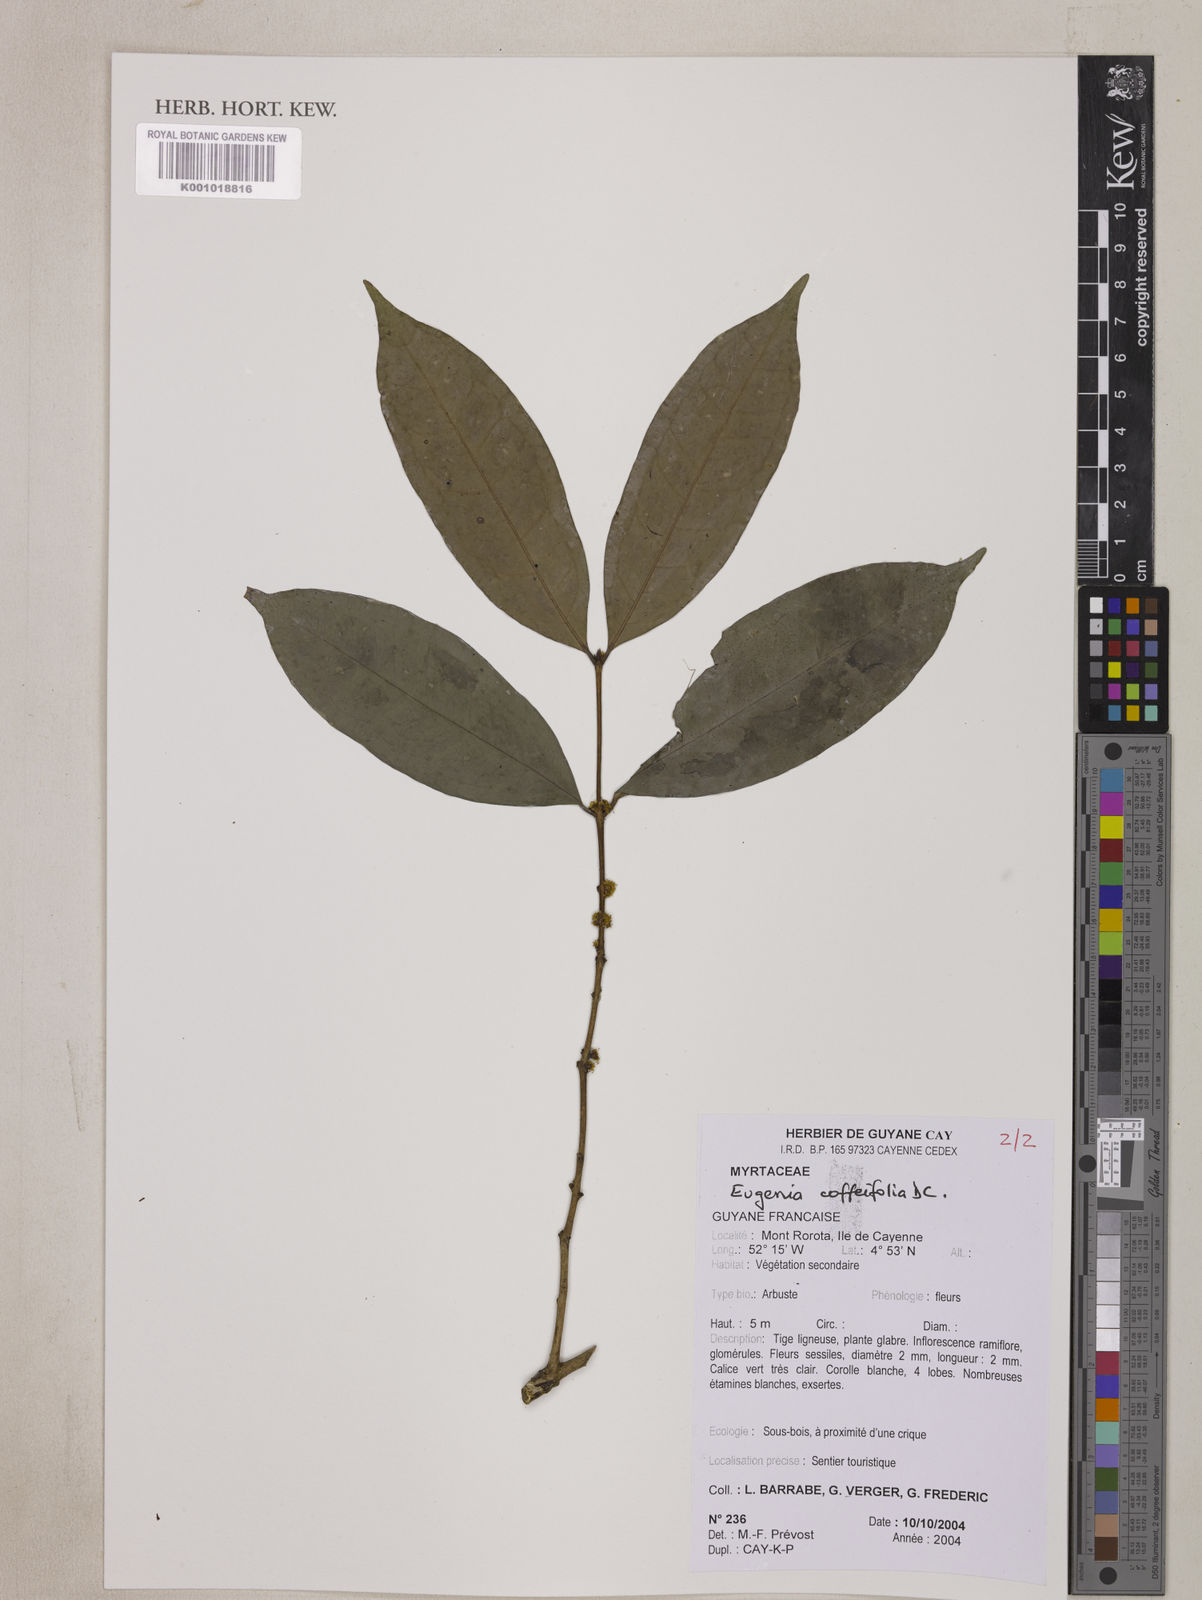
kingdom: Plantae
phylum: Tracheophyta
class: Magnoliopsida
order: Myrtales
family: Myrtaceae
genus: Eugenia
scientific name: Eugenia coffeifolia
